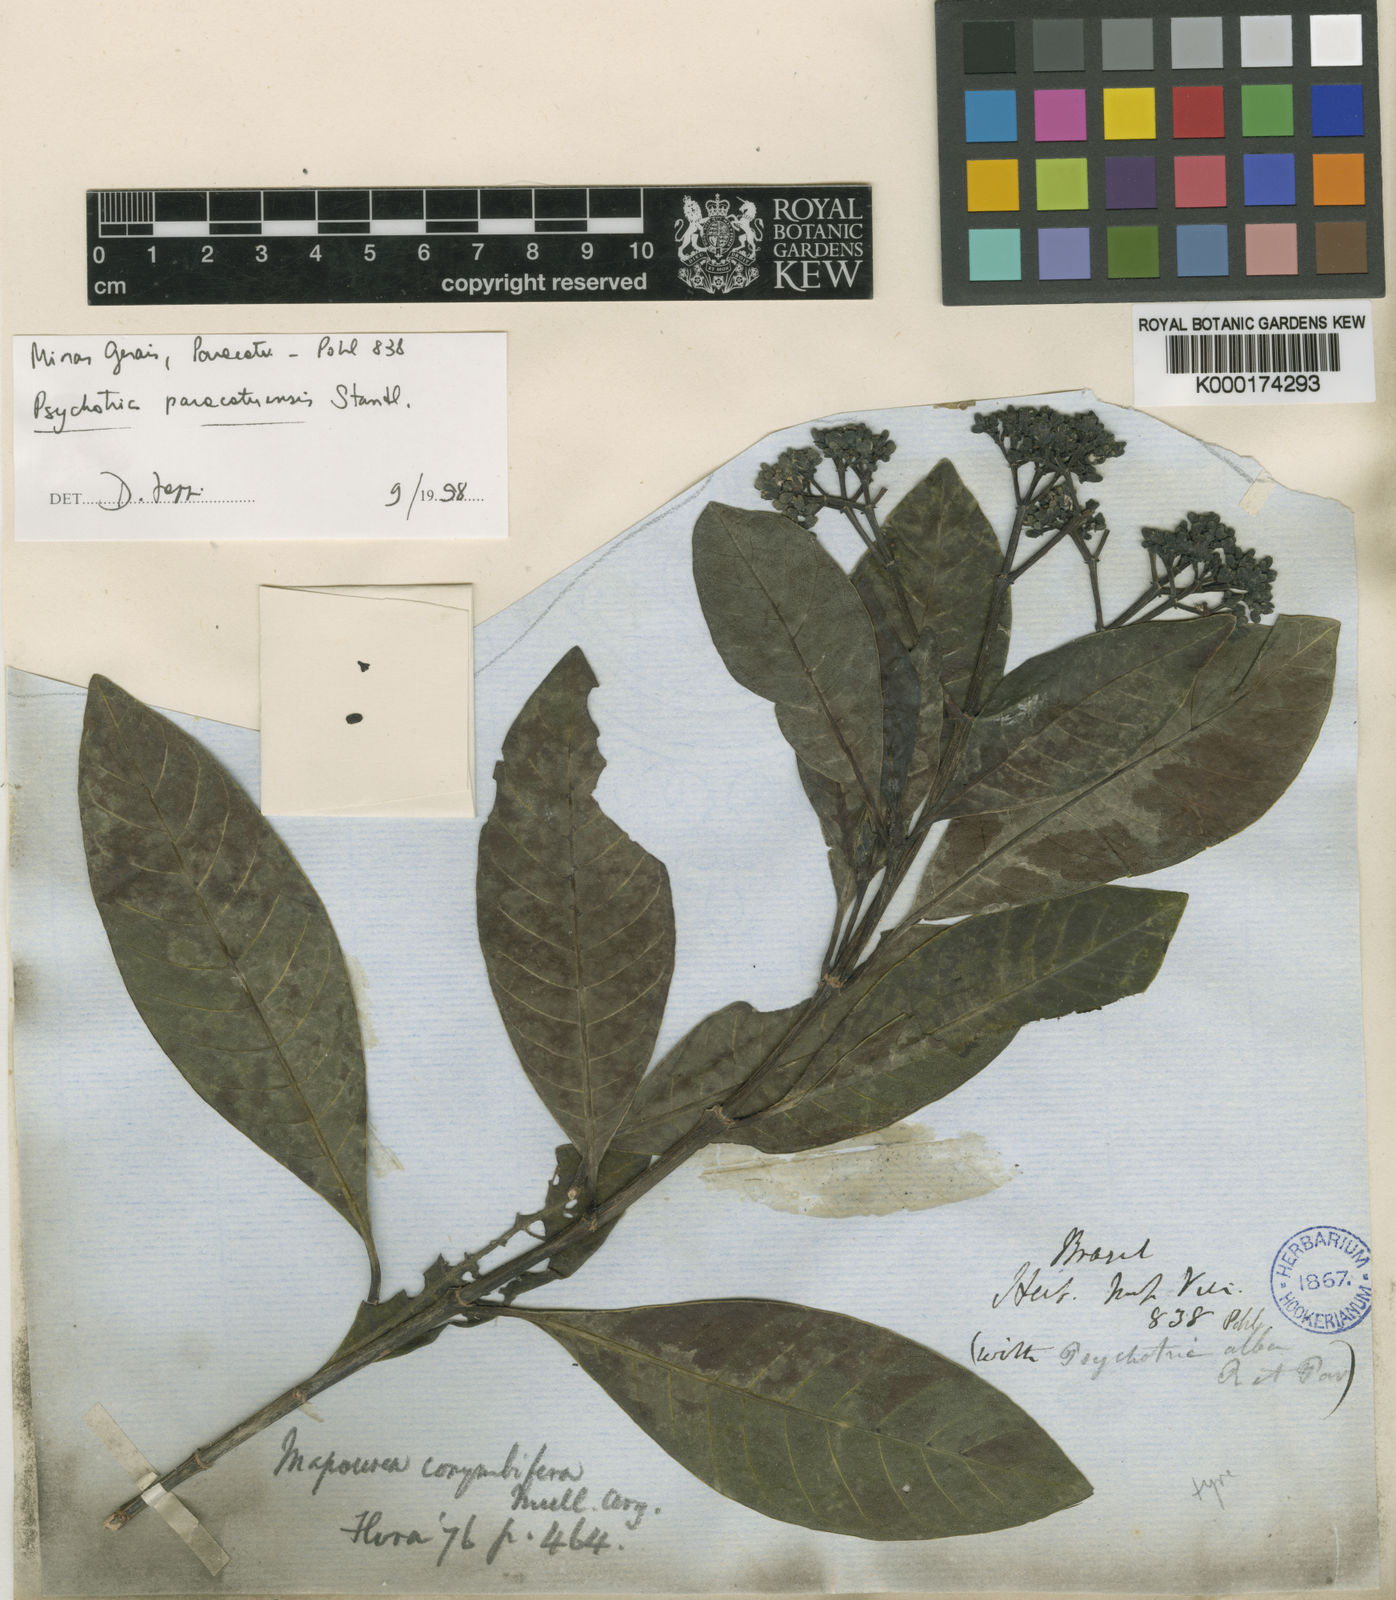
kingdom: Plantae
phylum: Tracheophyta
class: Magnoliopsida
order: Gentianales
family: Rubiaceae
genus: Psychotria
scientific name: Psychotria anceps
